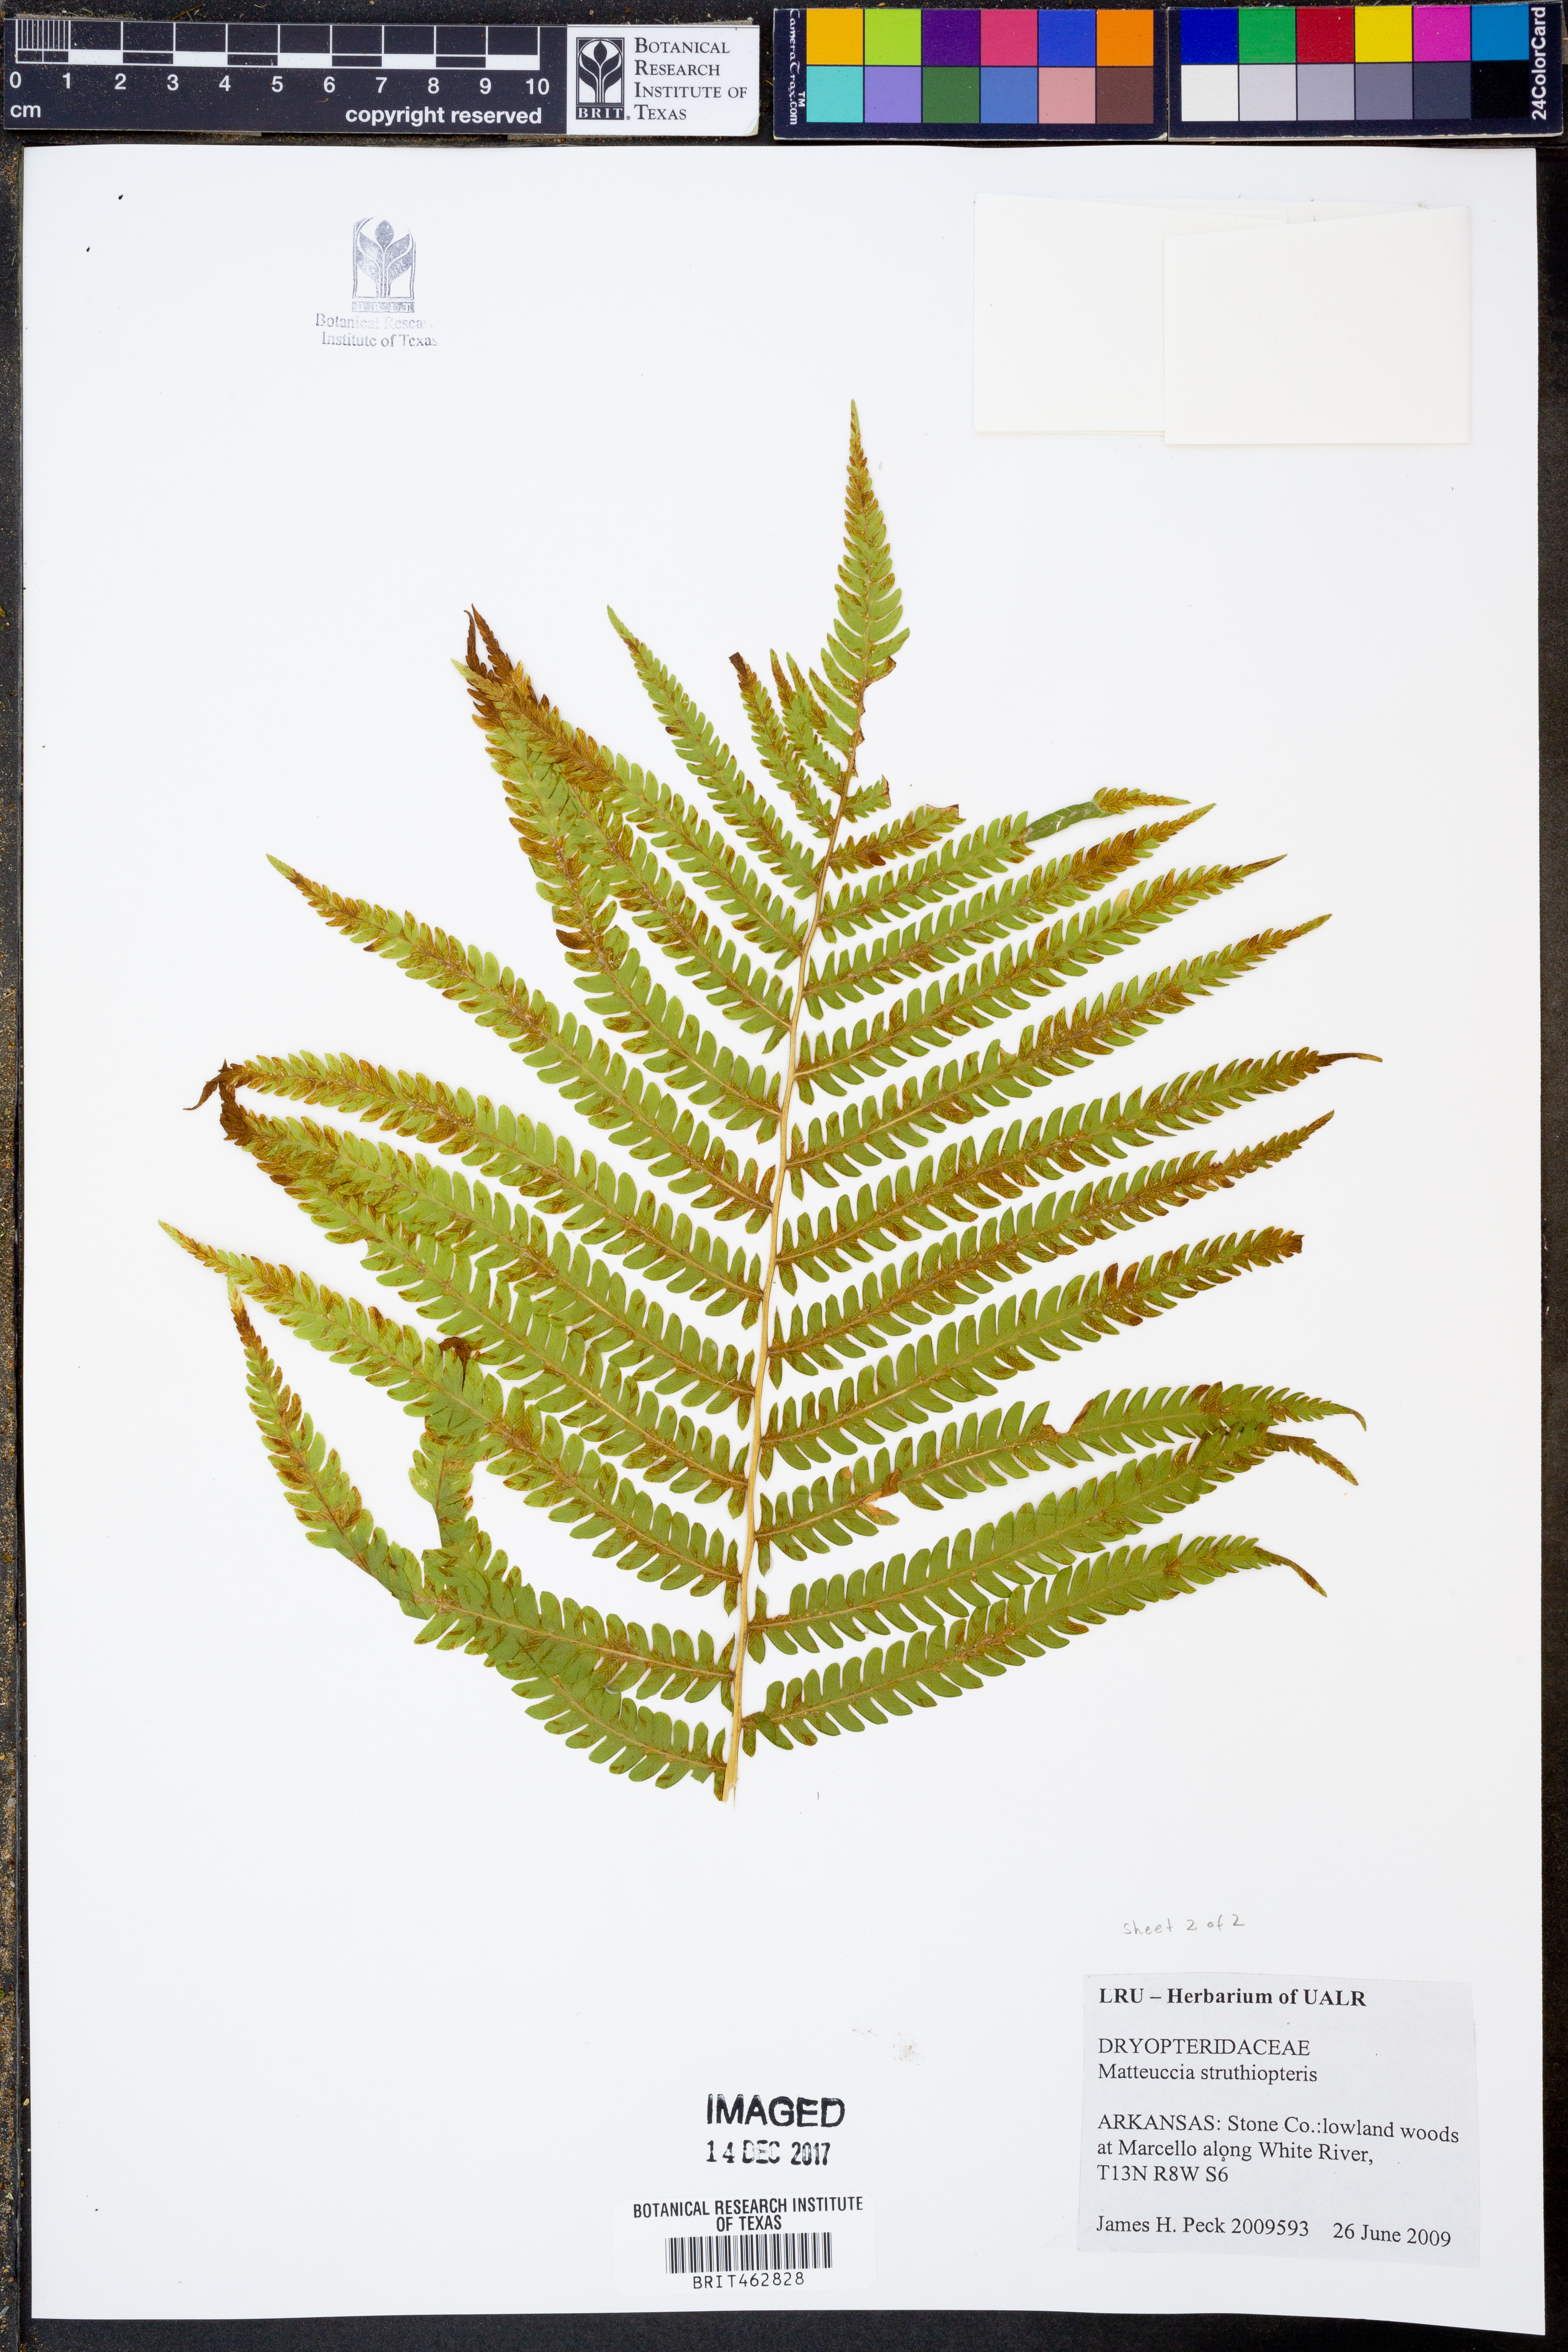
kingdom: Plantae
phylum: Tracheophyta
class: Polypodiopsida
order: Polypodiales
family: Onocleaceae
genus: Matteuccia
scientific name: Matteuccia struthiopteris
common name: Ostrich fern
